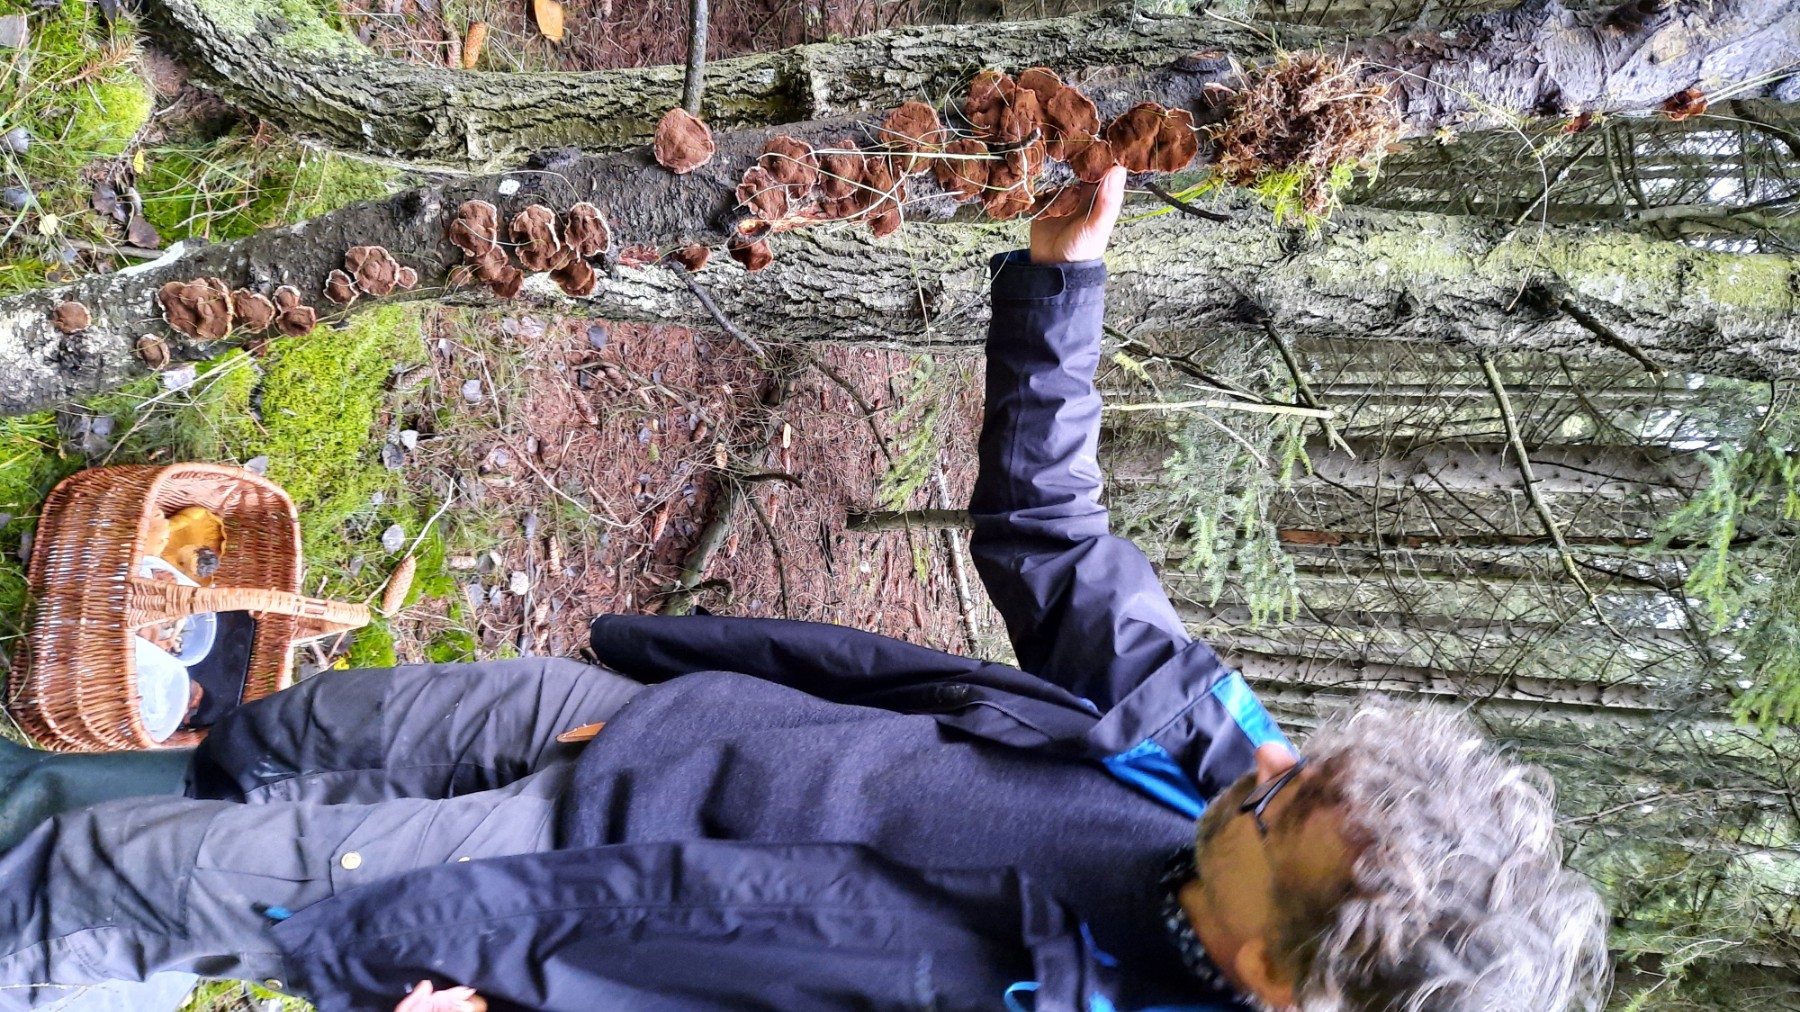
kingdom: Fungi
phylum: Basidiomycota
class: Agaricomycetes
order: Hymenochaetales
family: Hymenochaetaceae
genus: Inocutis
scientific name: Inocutis rheades
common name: ræve-spejlporesvamp
